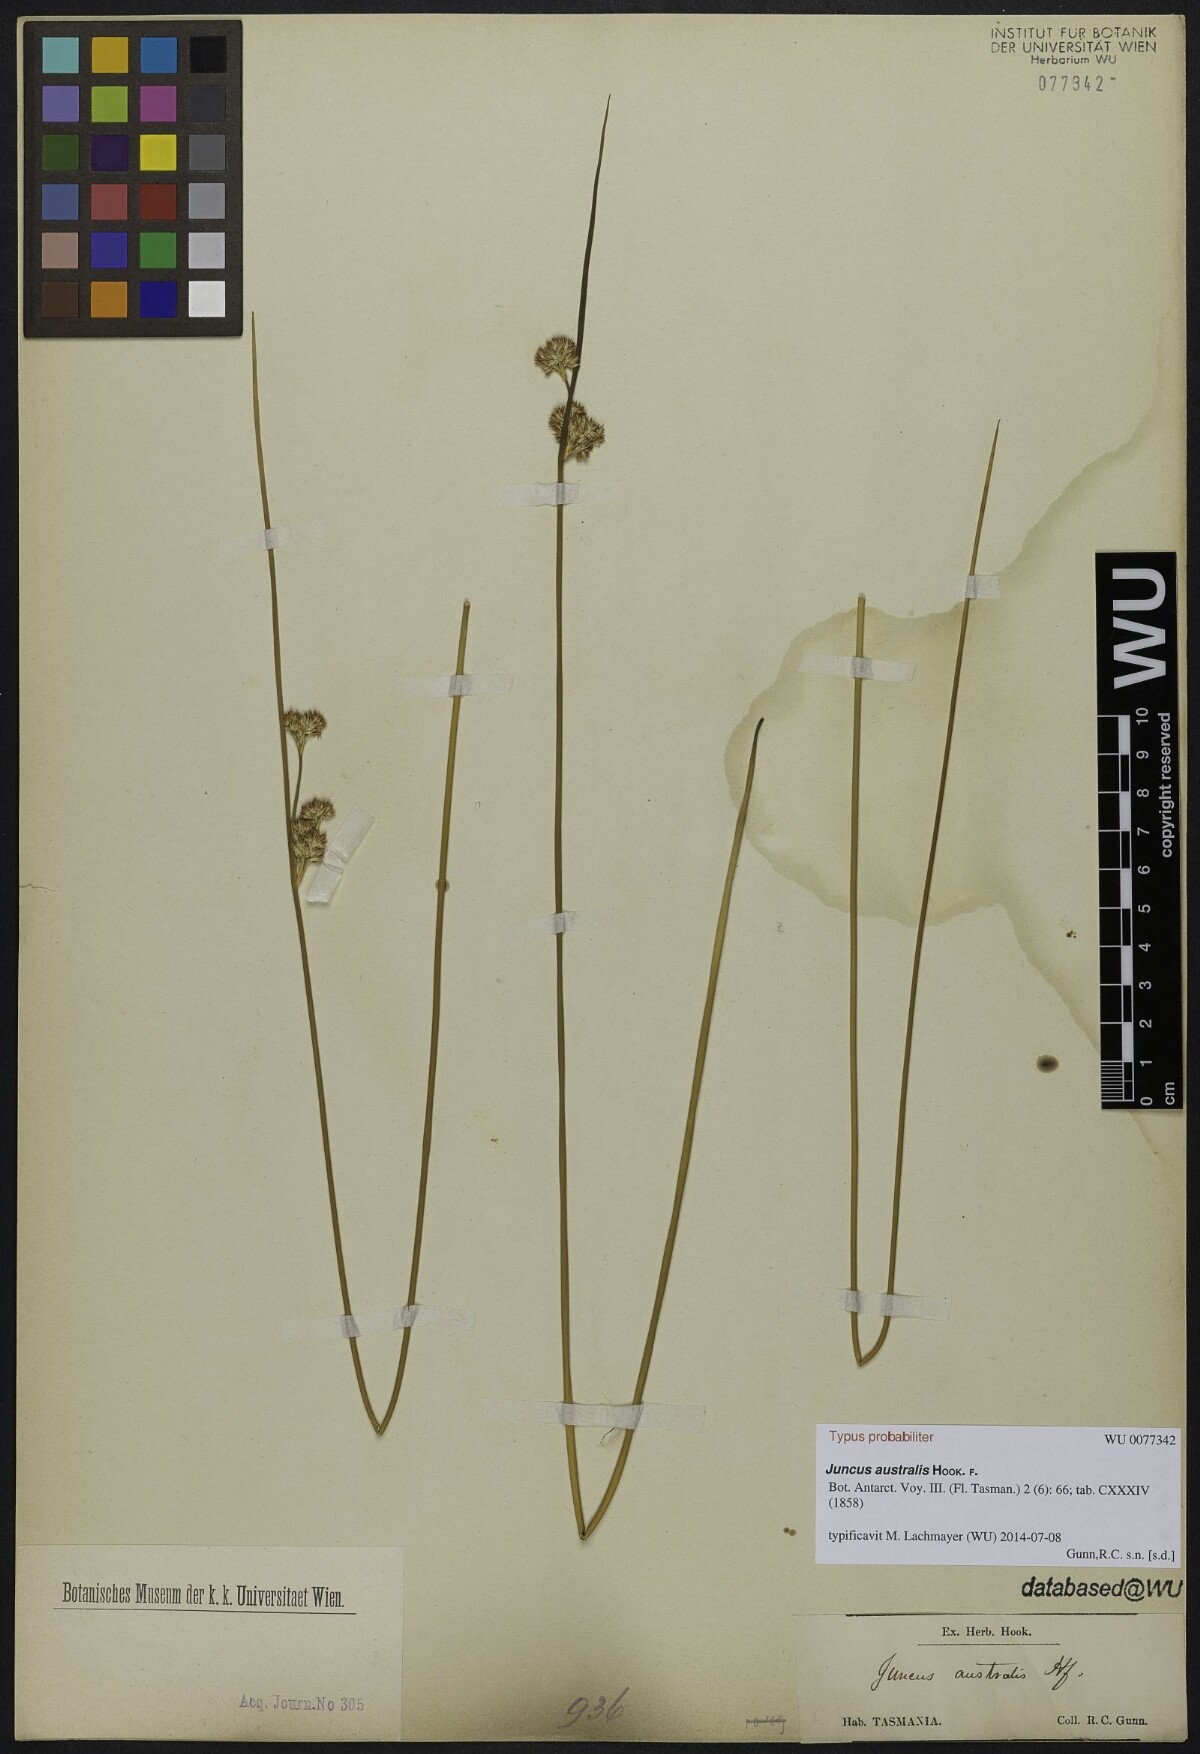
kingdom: Plantae
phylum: Tracheophyta
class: Liliopsida
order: Poales
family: Juncaceae
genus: Juncus
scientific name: Juncus australis
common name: Austral rush
